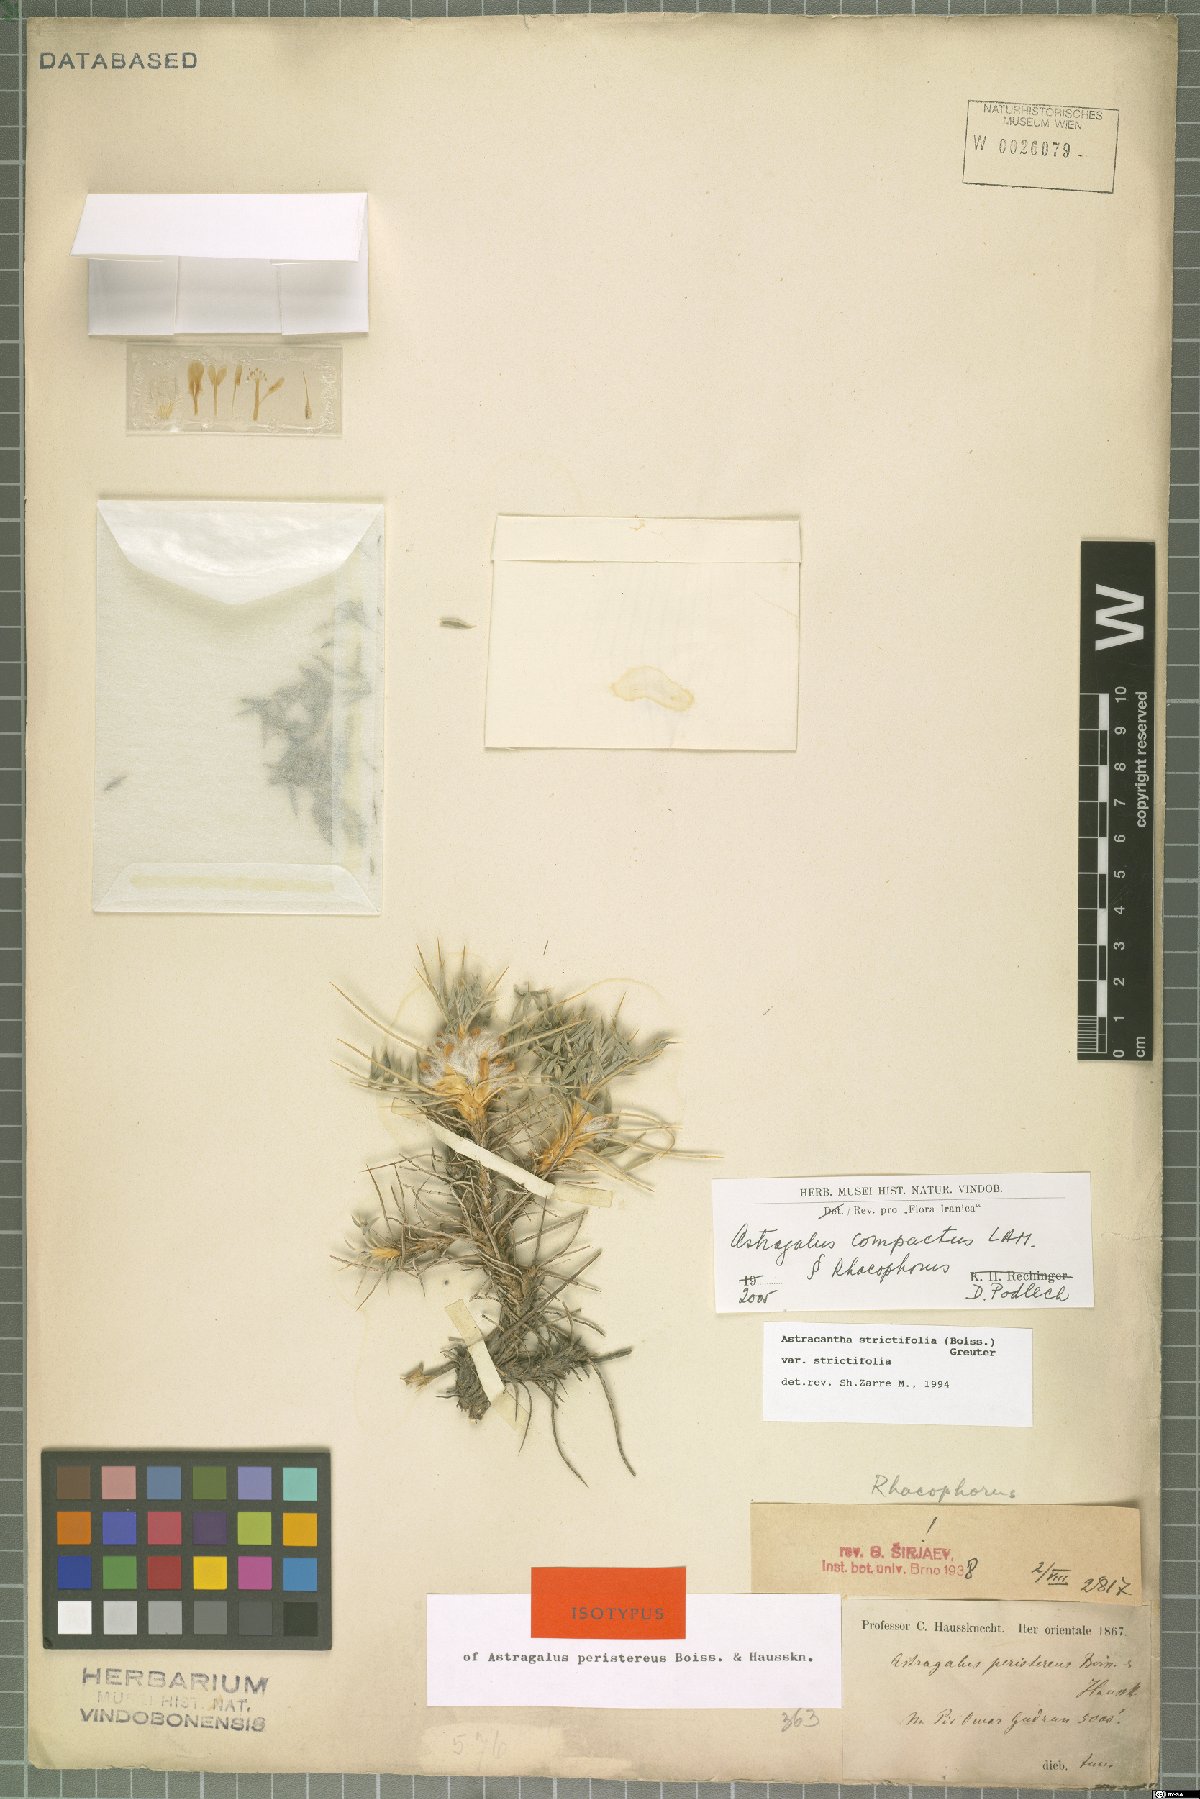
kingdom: Plantae
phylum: Tracheophyta
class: Magnoliopsida
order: Fabales
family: Fabaceae
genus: Astragalus
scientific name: Astragalus compactus
